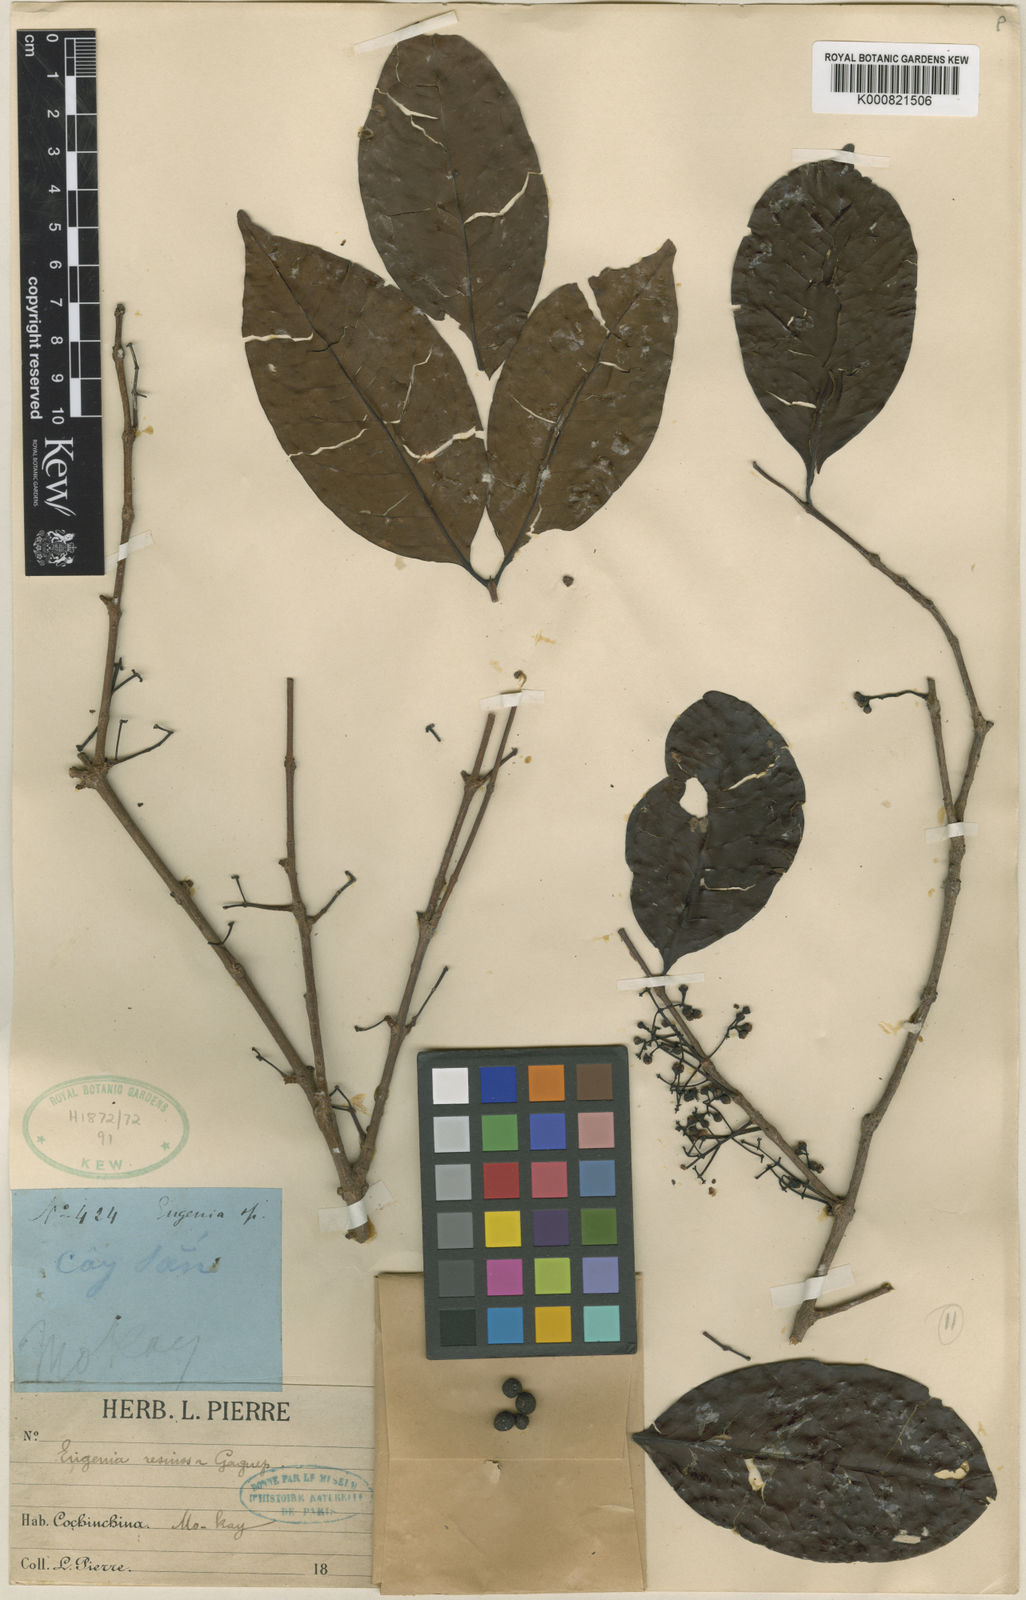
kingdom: Plantae
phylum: Tracheophyta
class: Magnoliopsida
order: Myrtales
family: Myrtaceae
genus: Eugenia
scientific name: Eugenia uniflora
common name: Surinam cherry
